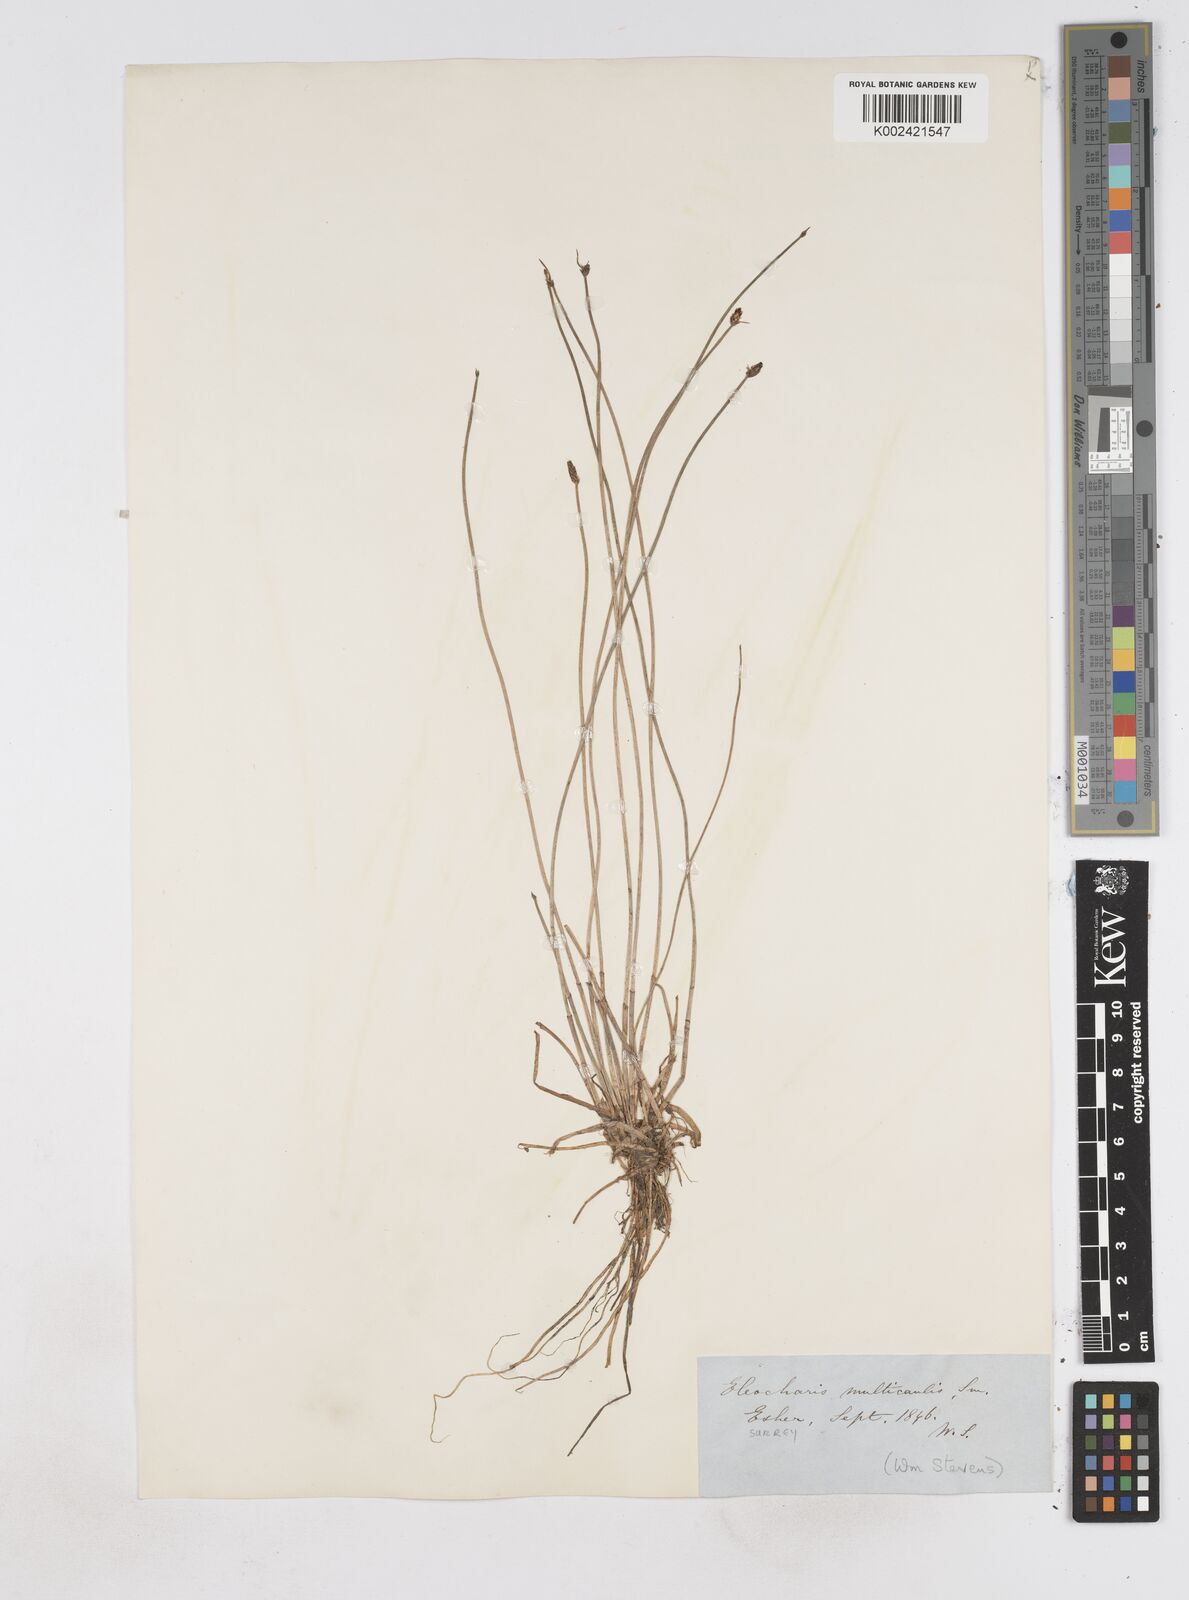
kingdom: Plantae
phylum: Tracheophyta
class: Liliopsida
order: Poales
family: Cyperaceae
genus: Eleocharis
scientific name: Eleocharis multicaulis
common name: Many-stalked spike-rush
